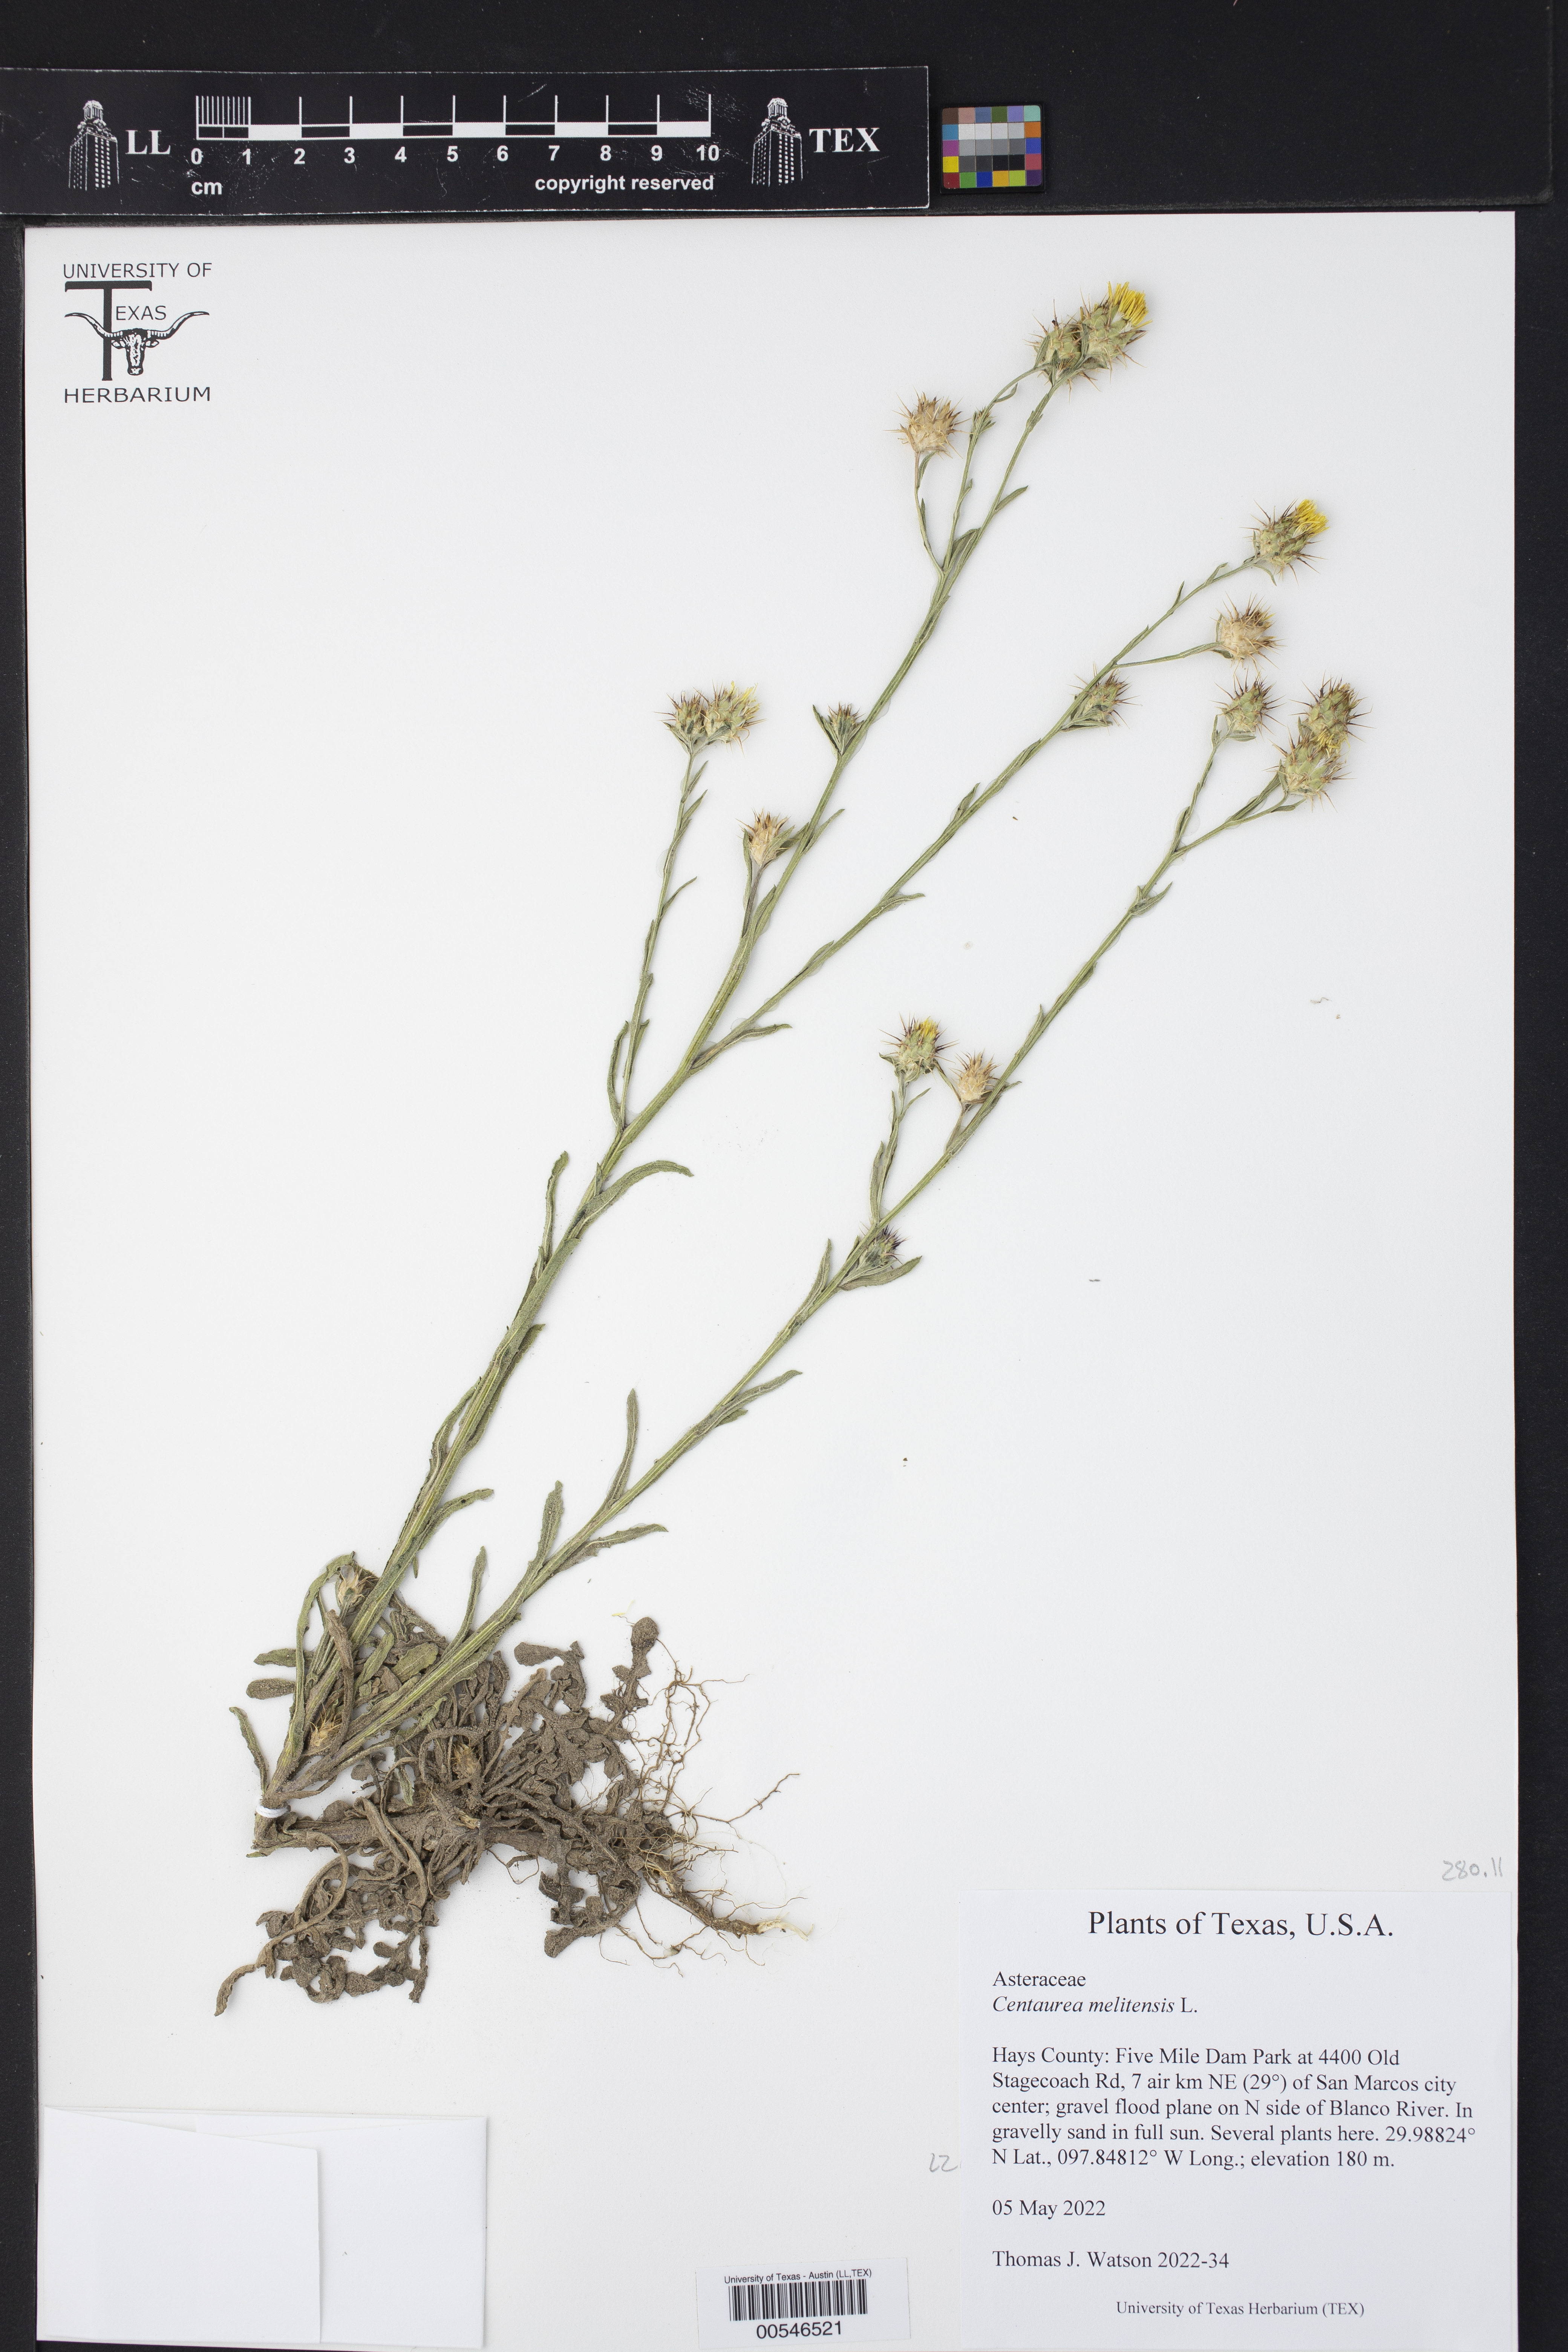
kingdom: Plantae
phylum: Tracheophyta
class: Magnoliopsida
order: Asterales
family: Asteraceae
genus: Centaurea
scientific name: Centaurea melitensis
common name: Maltese star-thistle
